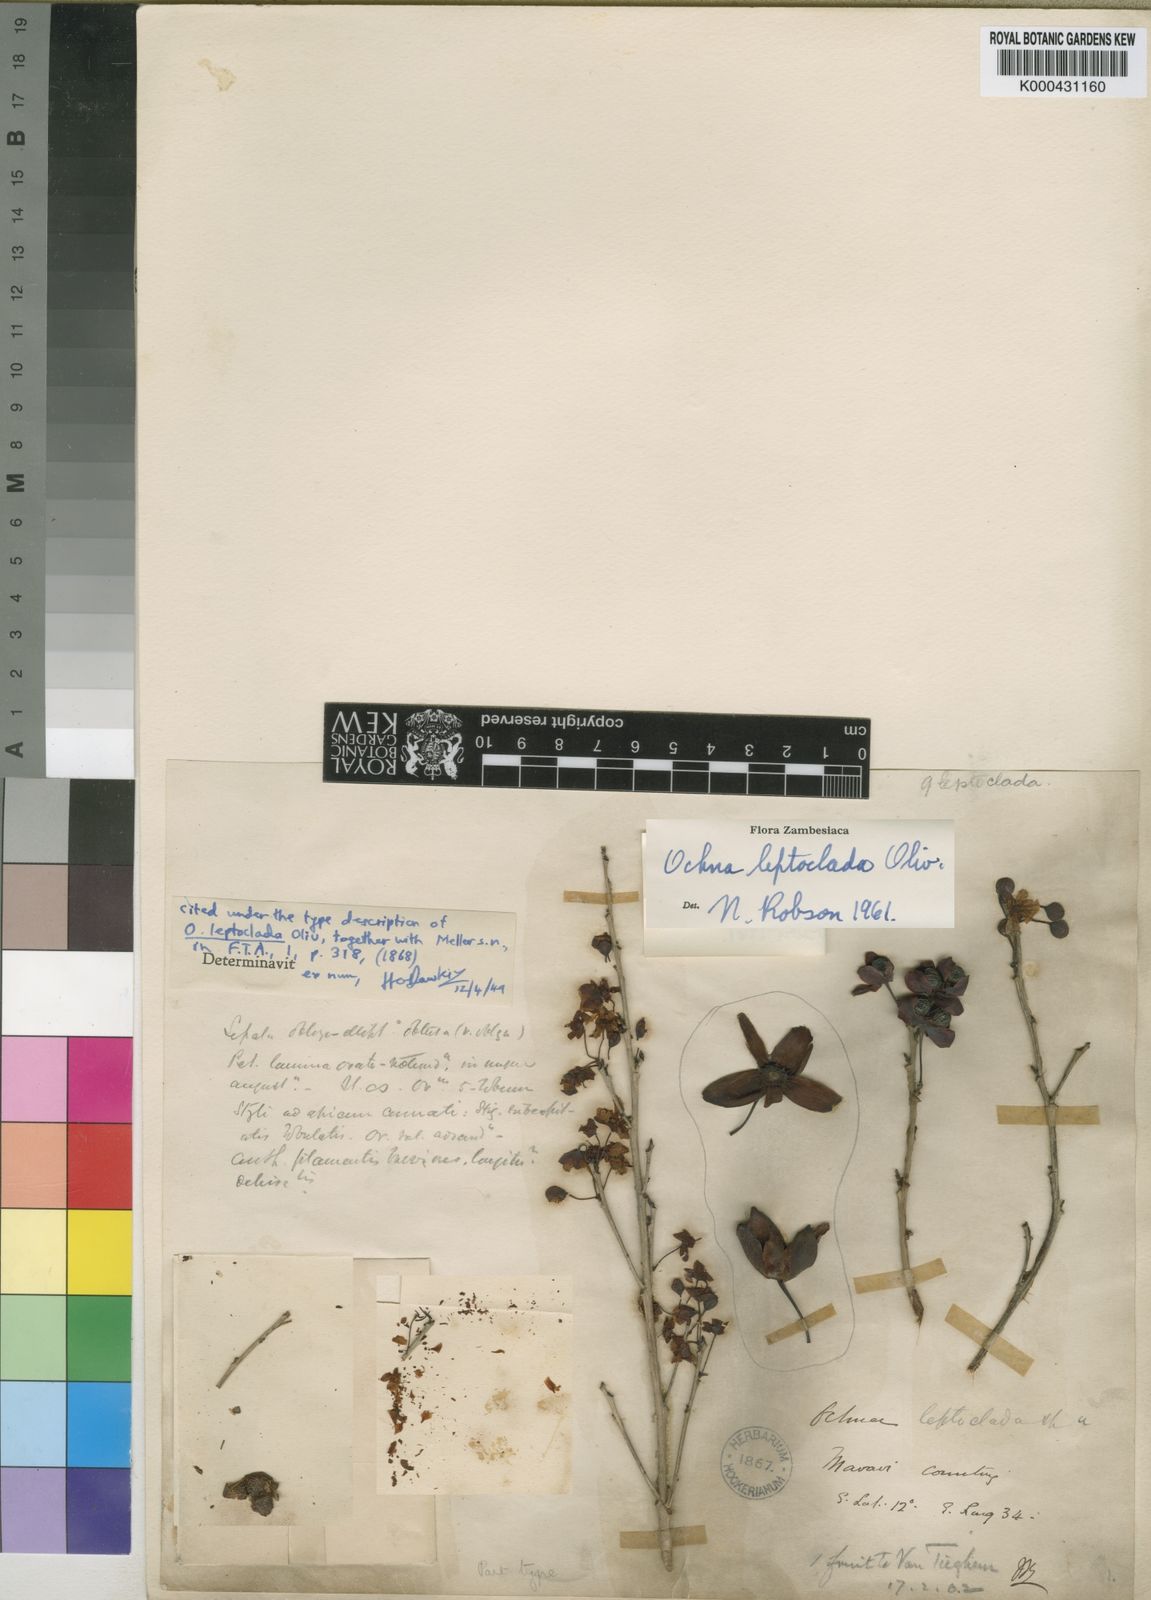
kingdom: Plantae
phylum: Tracheophyta
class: Magnoliopsida
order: Malpighiales
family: Ochnaceae
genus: Ochna
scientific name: Ochna leptoclada
